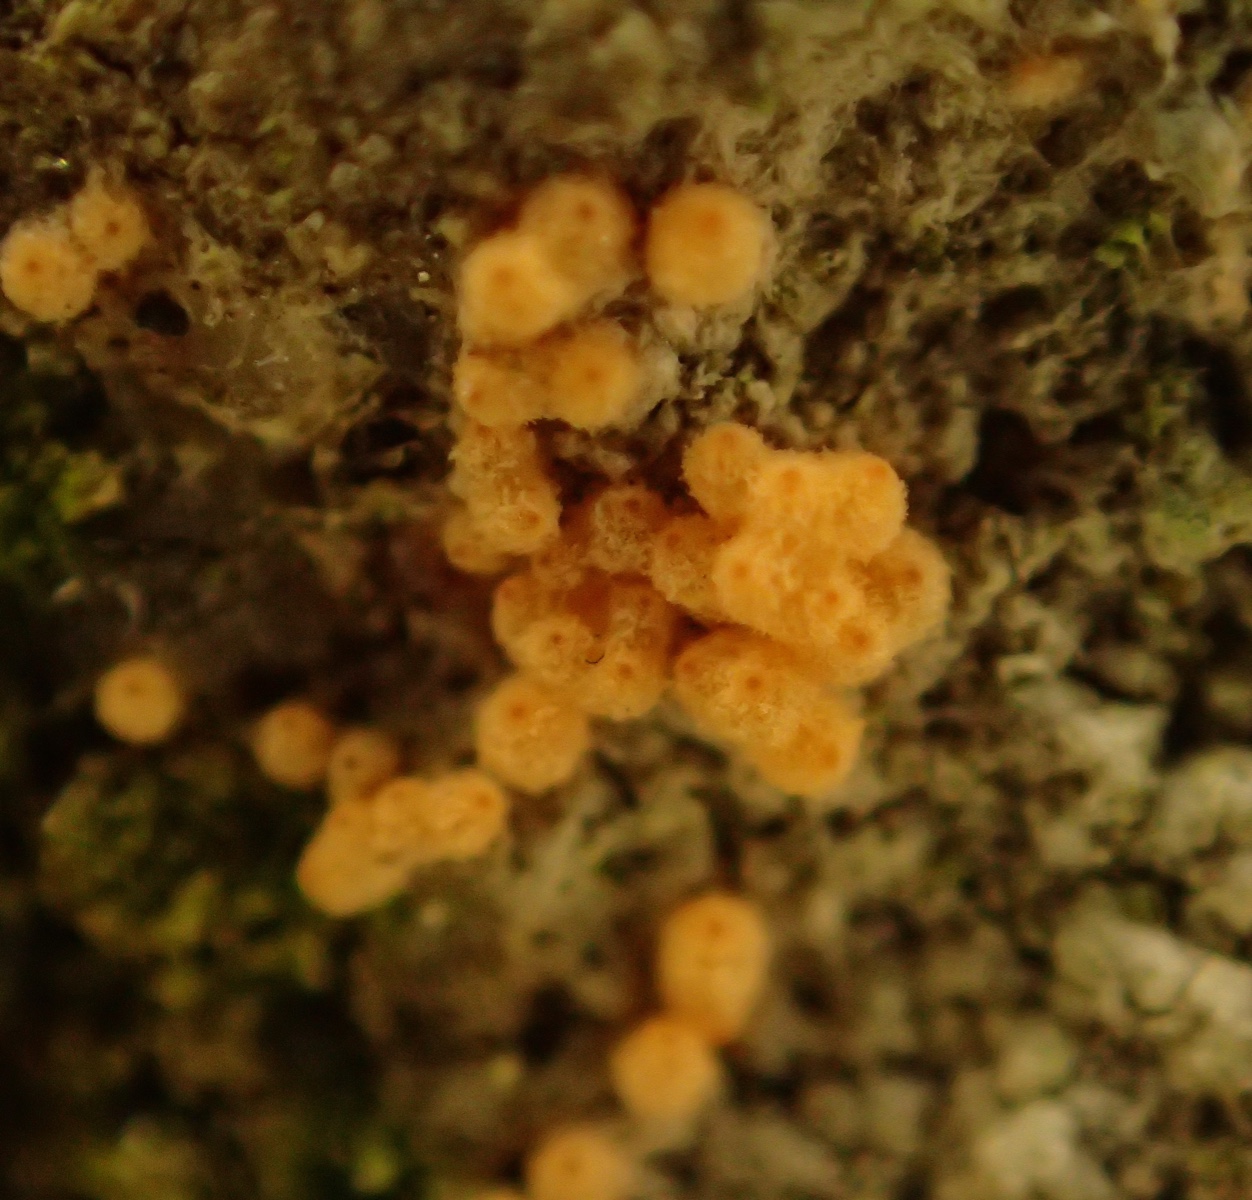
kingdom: Fungi
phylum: Ascomycota
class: Sordariomycetes
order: Hypocreales
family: Bionectriaceae
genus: Paranectria
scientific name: Paranectria oropensis
